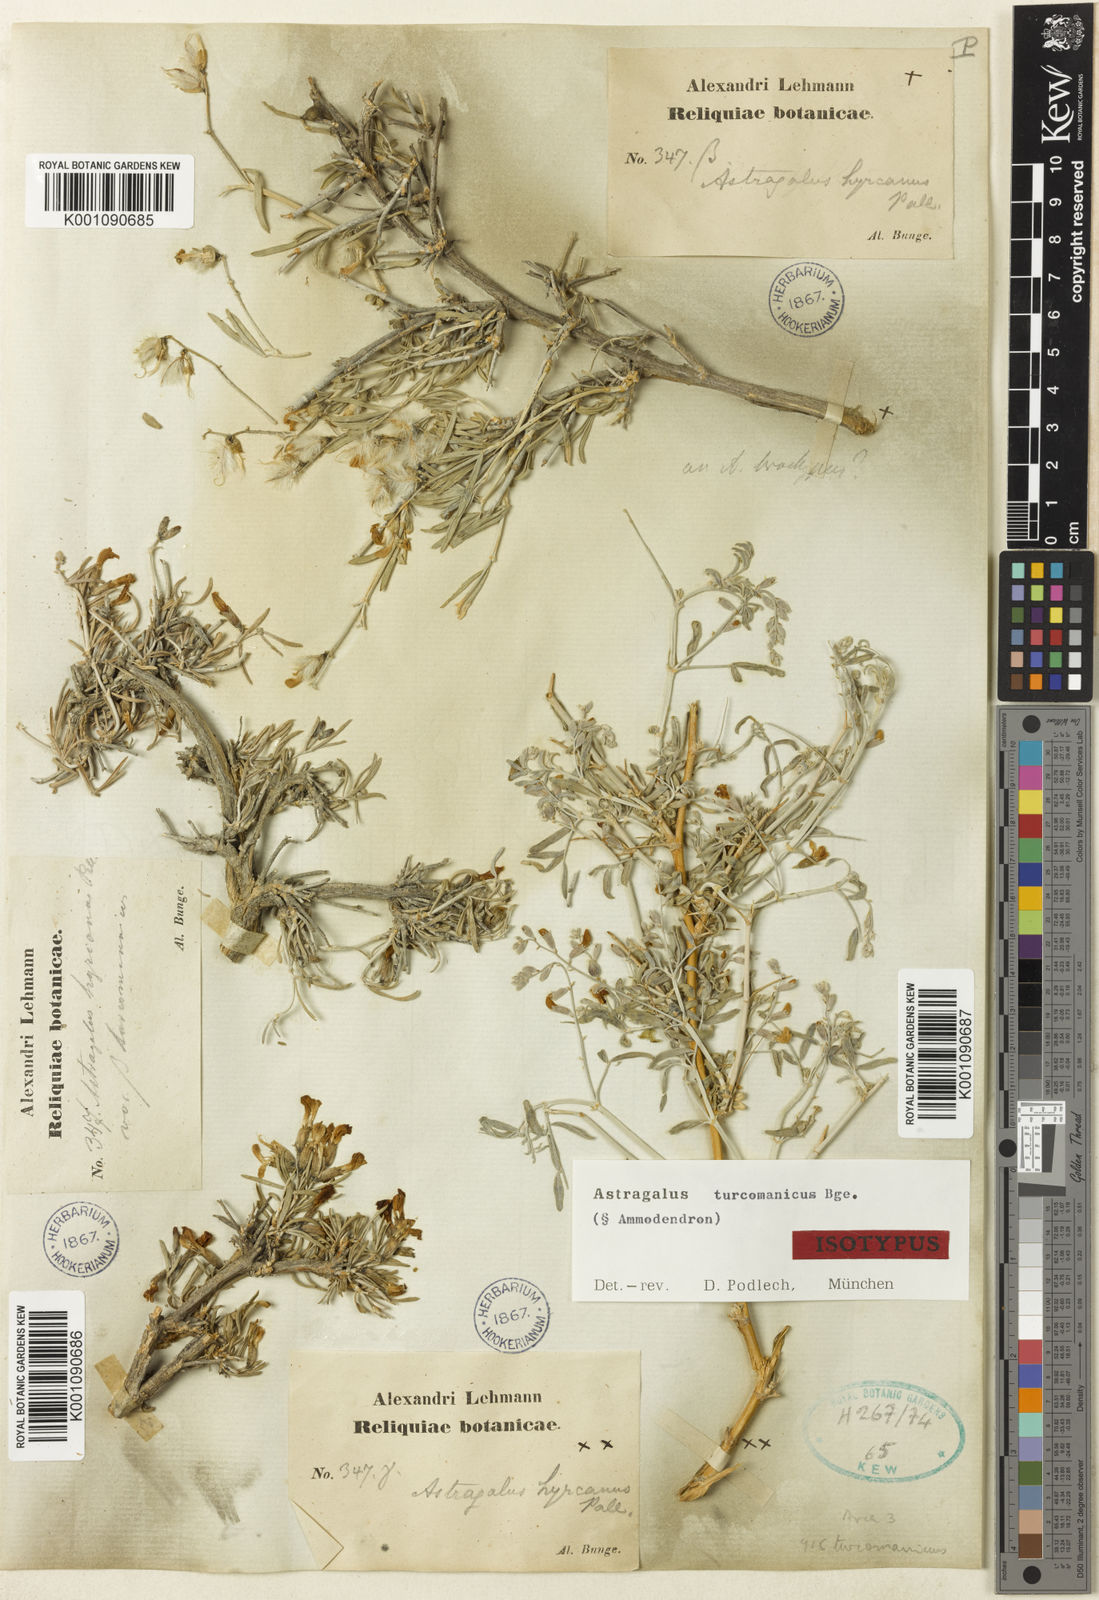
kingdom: Plantae
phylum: Tracheophyta
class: Magnoliopsida
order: Fabales
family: Fabaceae
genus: Astragalus
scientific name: Astragalus
